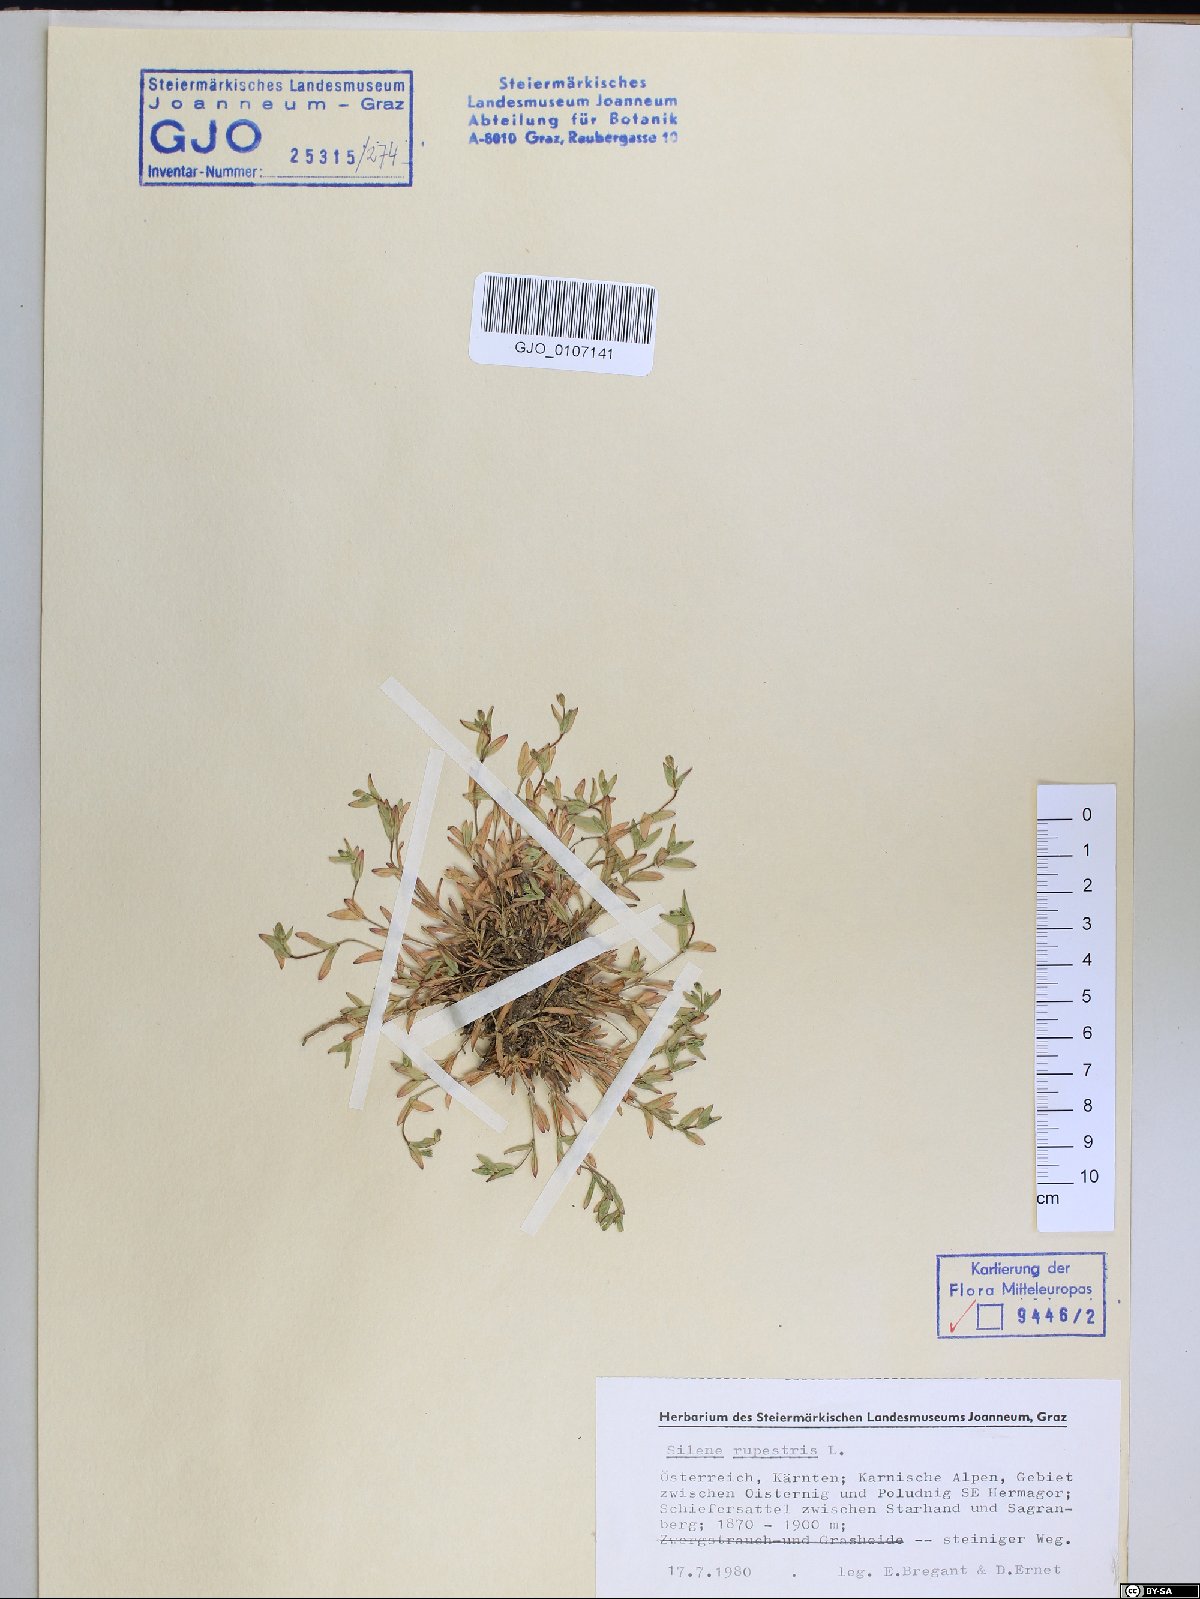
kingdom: Plantae
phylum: Tracheophyta
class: Magnoliopsida
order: Caryophyllales
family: Caryophyllaceae
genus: Atocion
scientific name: Atocion rupestre
